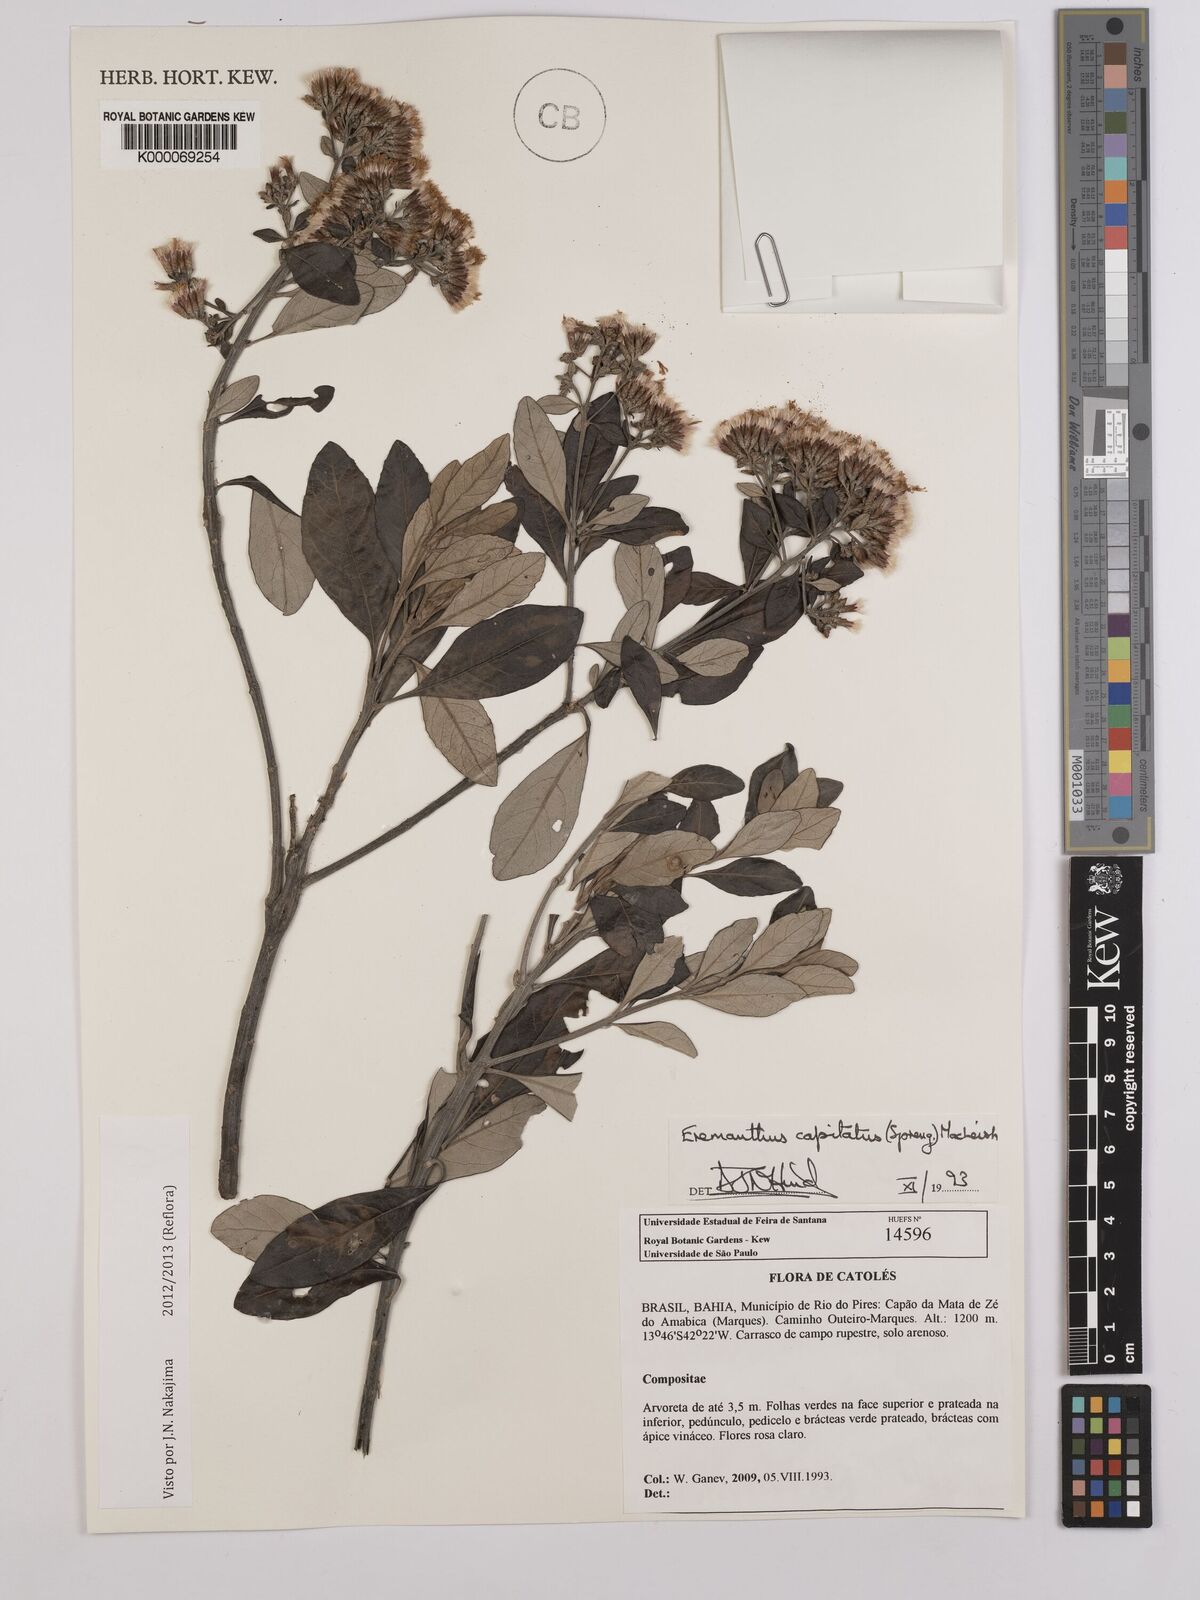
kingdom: Plantae
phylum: Tracheophyta
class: Magnoliopsida
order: Asterales
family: Asteraceae
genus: Eremanthus
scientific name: Eremanthus capitatus
